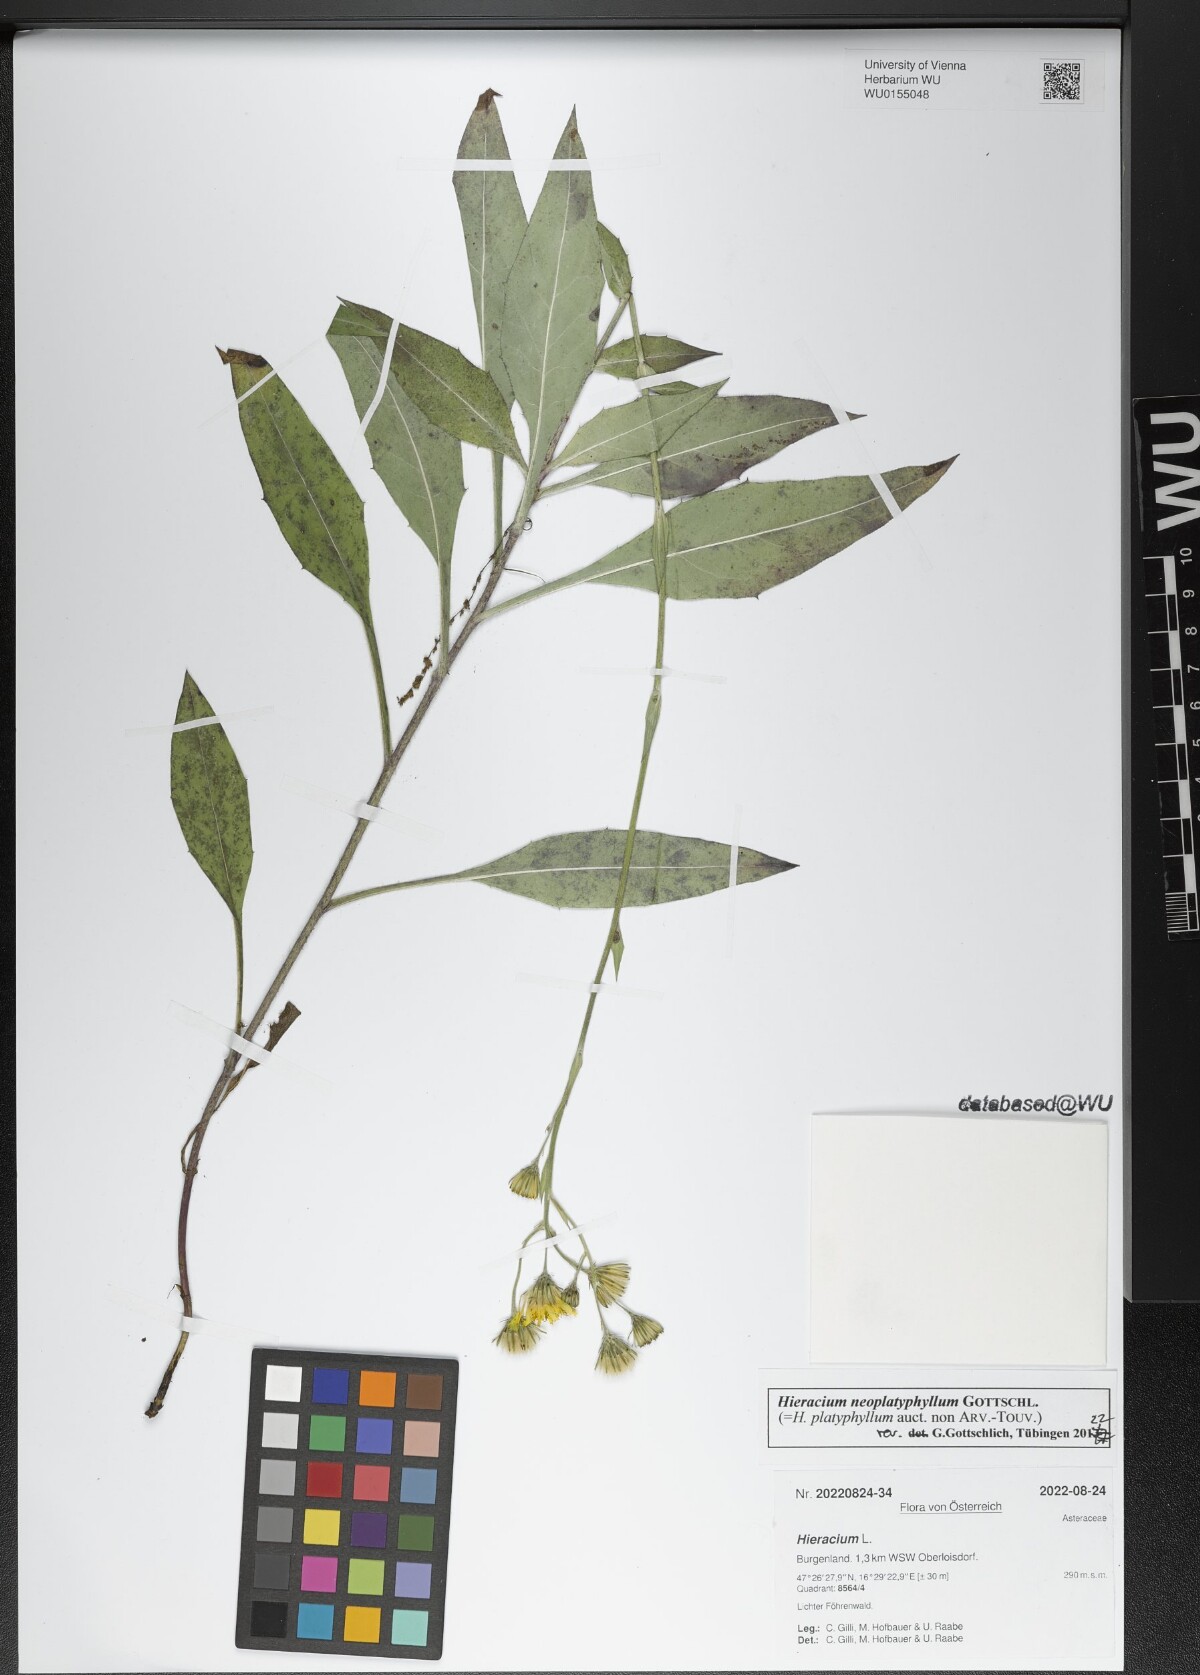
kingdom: Plantae
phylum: Tracheophyta
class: Magnoliopsida
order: Asterales
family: Asteraceae
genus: Hieracium
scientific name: Hieracium neoplatyphyllum
